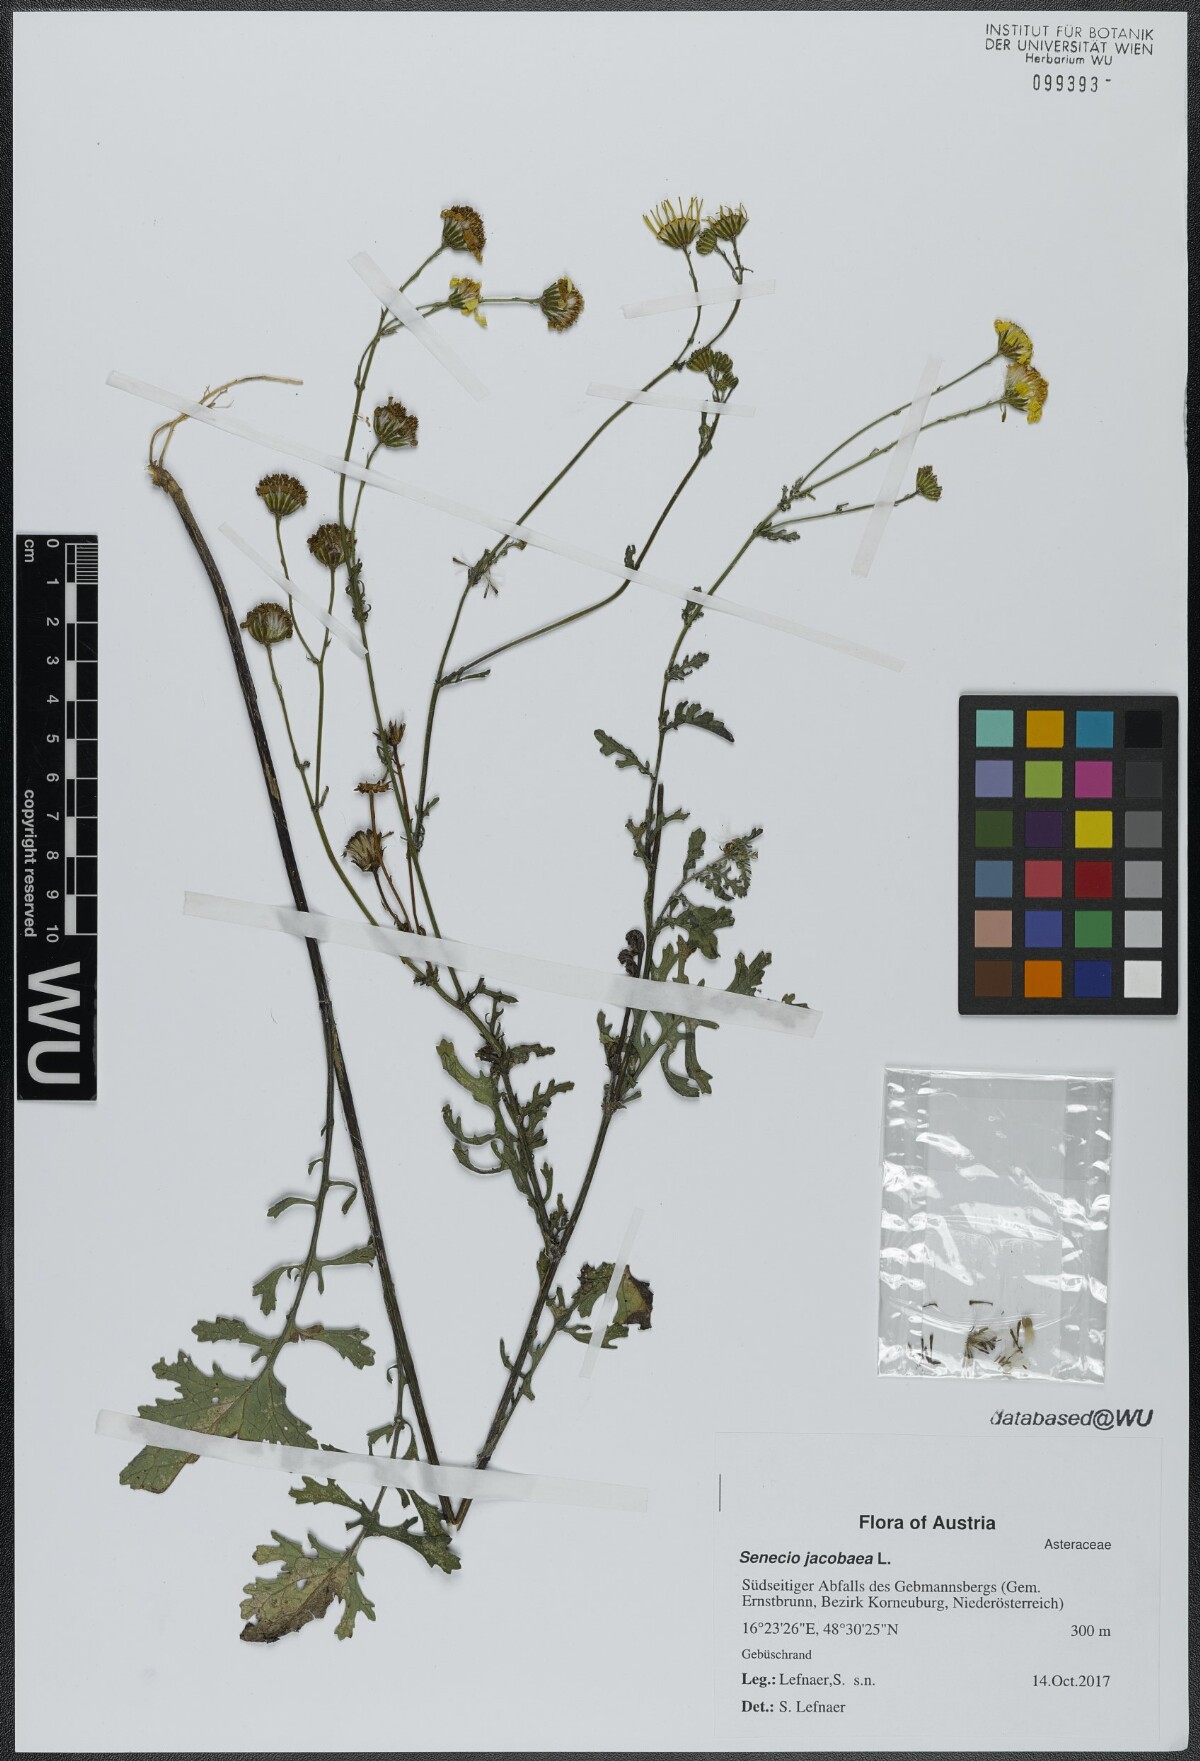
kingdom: Plantae
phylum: Tracheophyta
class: Magnoliopsida
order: Asterales
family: Asteraceae
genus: Jacobaea
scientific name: Jacobaea vulgaris
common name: Stinking willie
